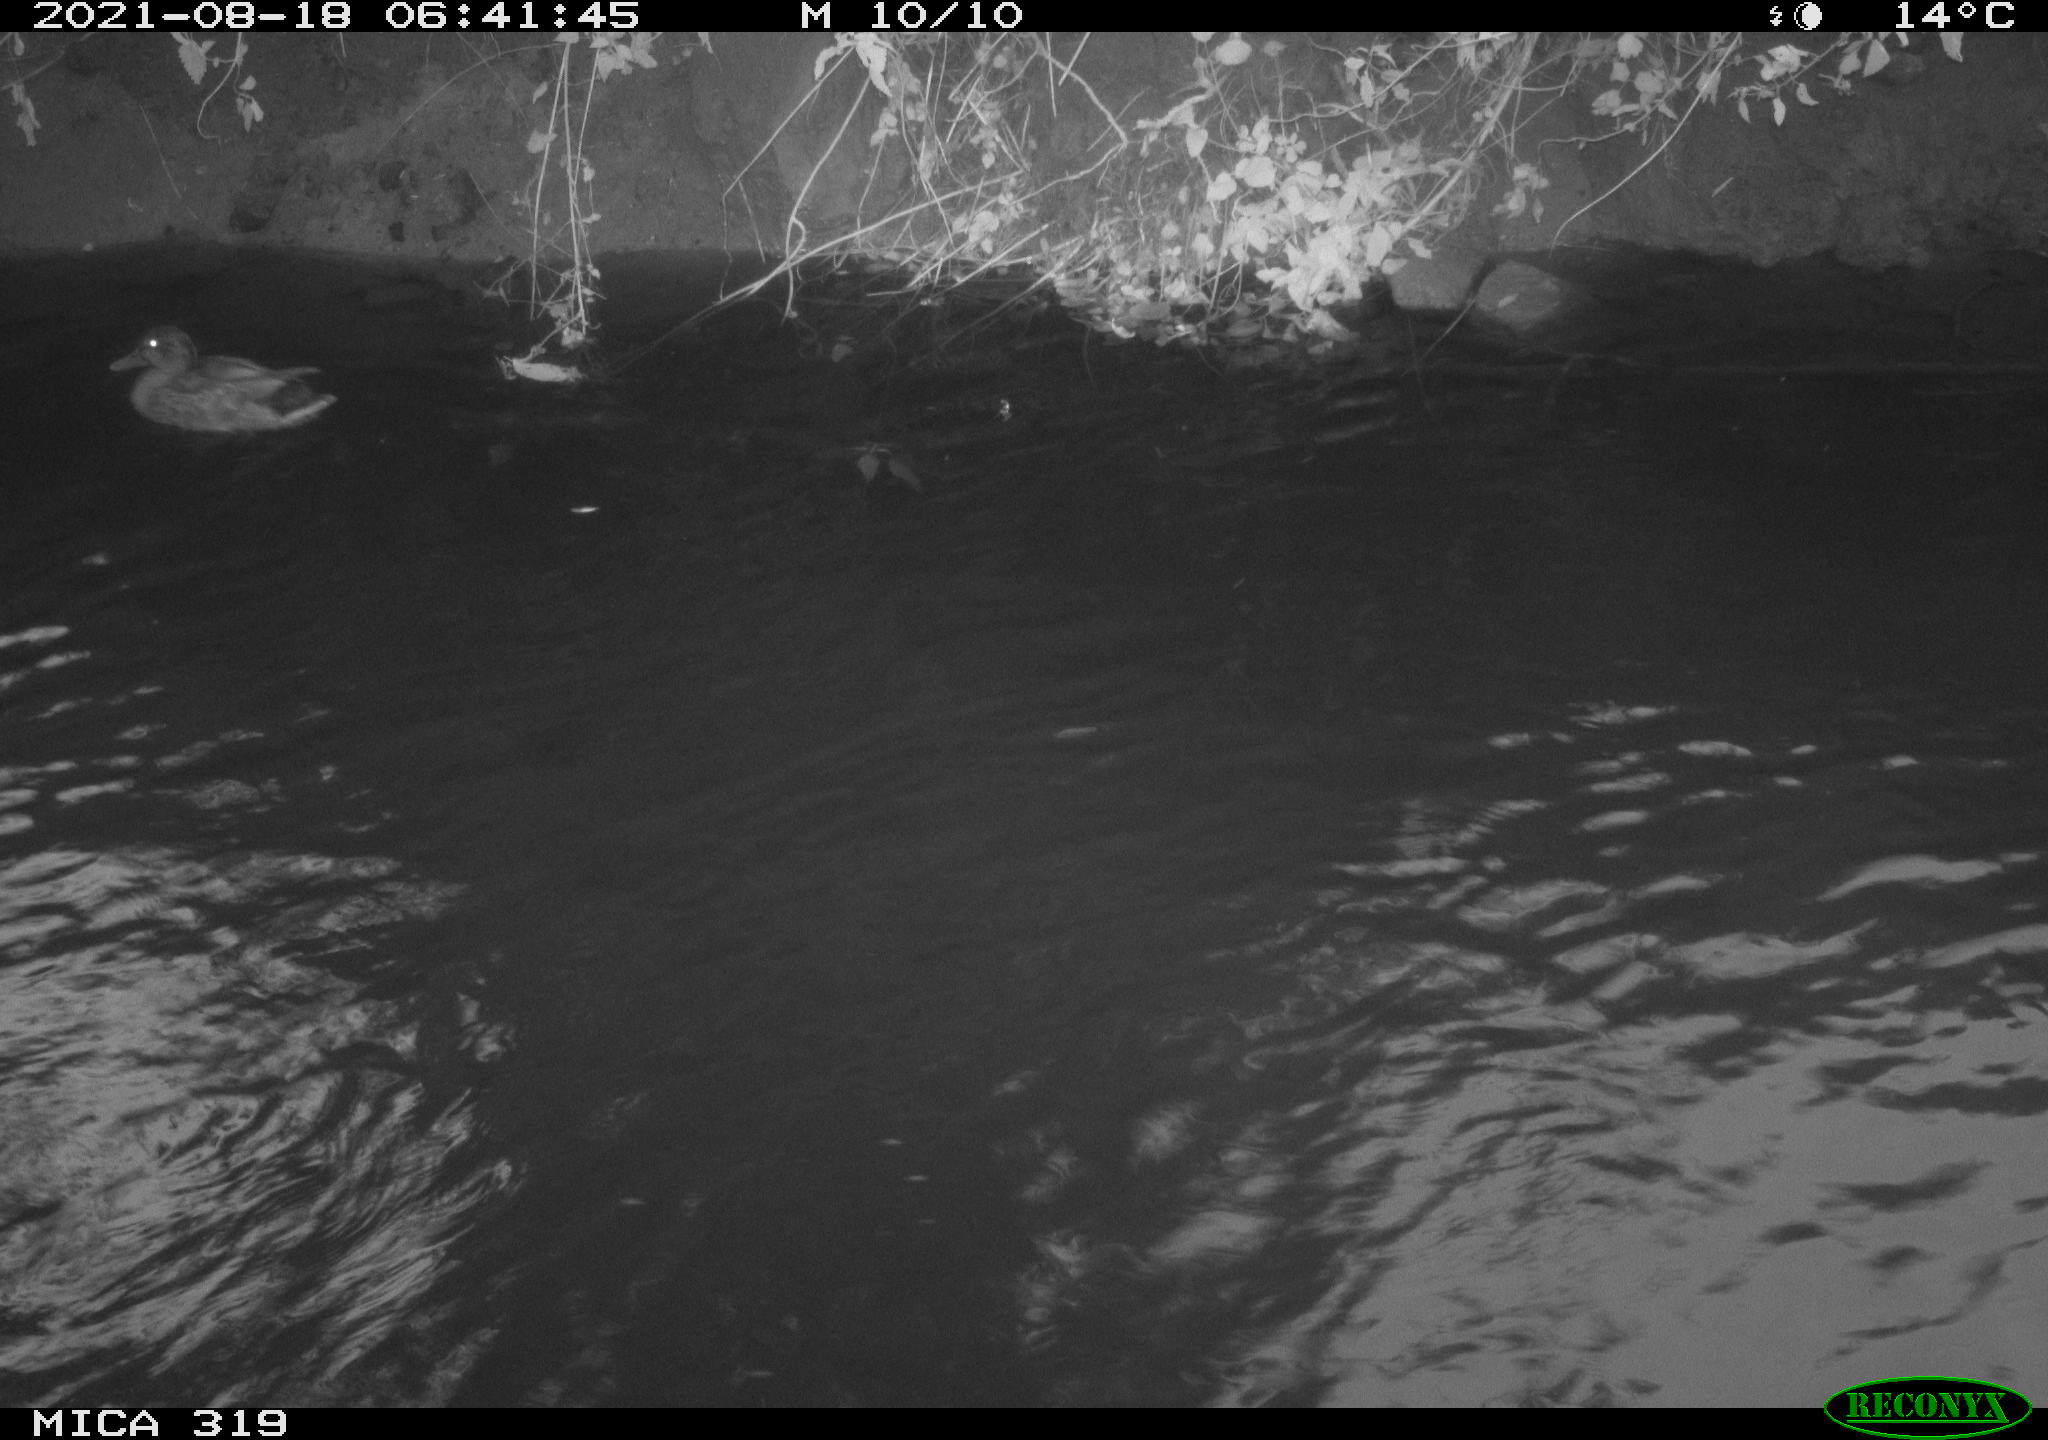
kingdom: Animalia
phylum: Chordata
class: Aves
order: Anseriformes
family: Anatidae
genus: Anas
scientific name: Anas platyrhynchos
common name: Mallard
